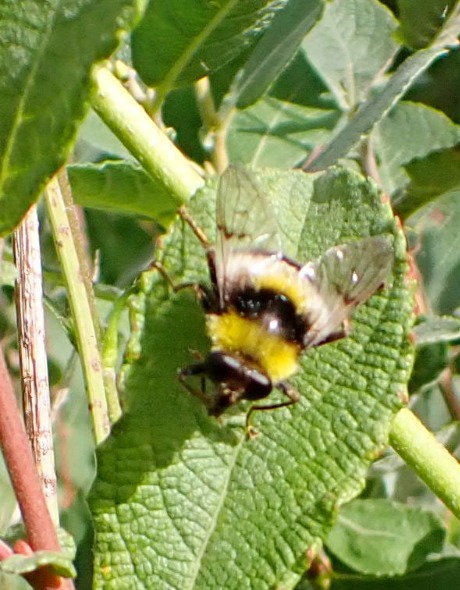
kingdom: Animalia
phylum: Arthropoda
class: Insecta
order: Diptera
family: Syrphidae
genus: Sericomyia
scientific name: Sericomyia bombiformis
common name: Gul bjørnesvirreflue
